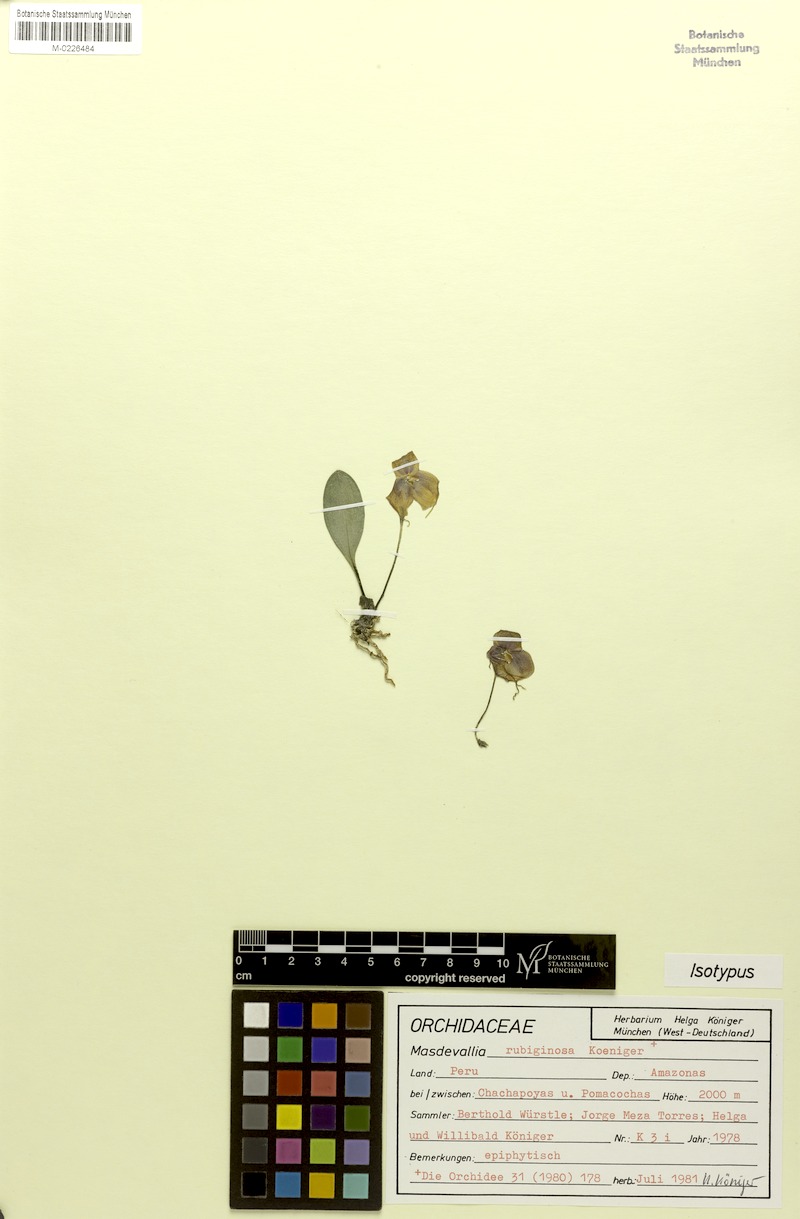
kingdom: Plantae
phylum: Tracheophyta
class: Liliopsida
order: Asparagales
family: Orchidaceae
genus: Masdevallia
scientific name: Masdevallia rubiginosa
